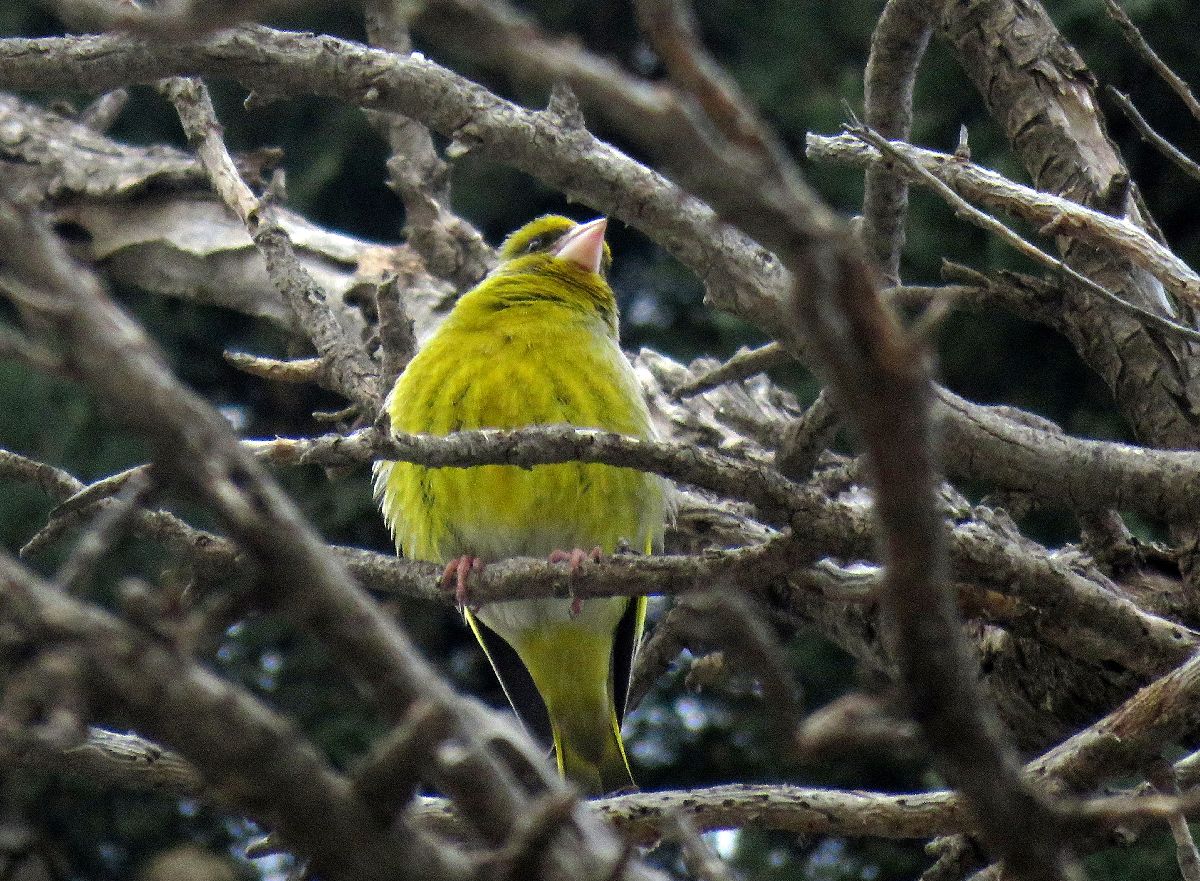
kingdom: Plantae
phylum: Tracheophyta
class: Liliopsida
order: Poales
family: Poaceae
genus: Chloris
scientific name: Chloris chloris
